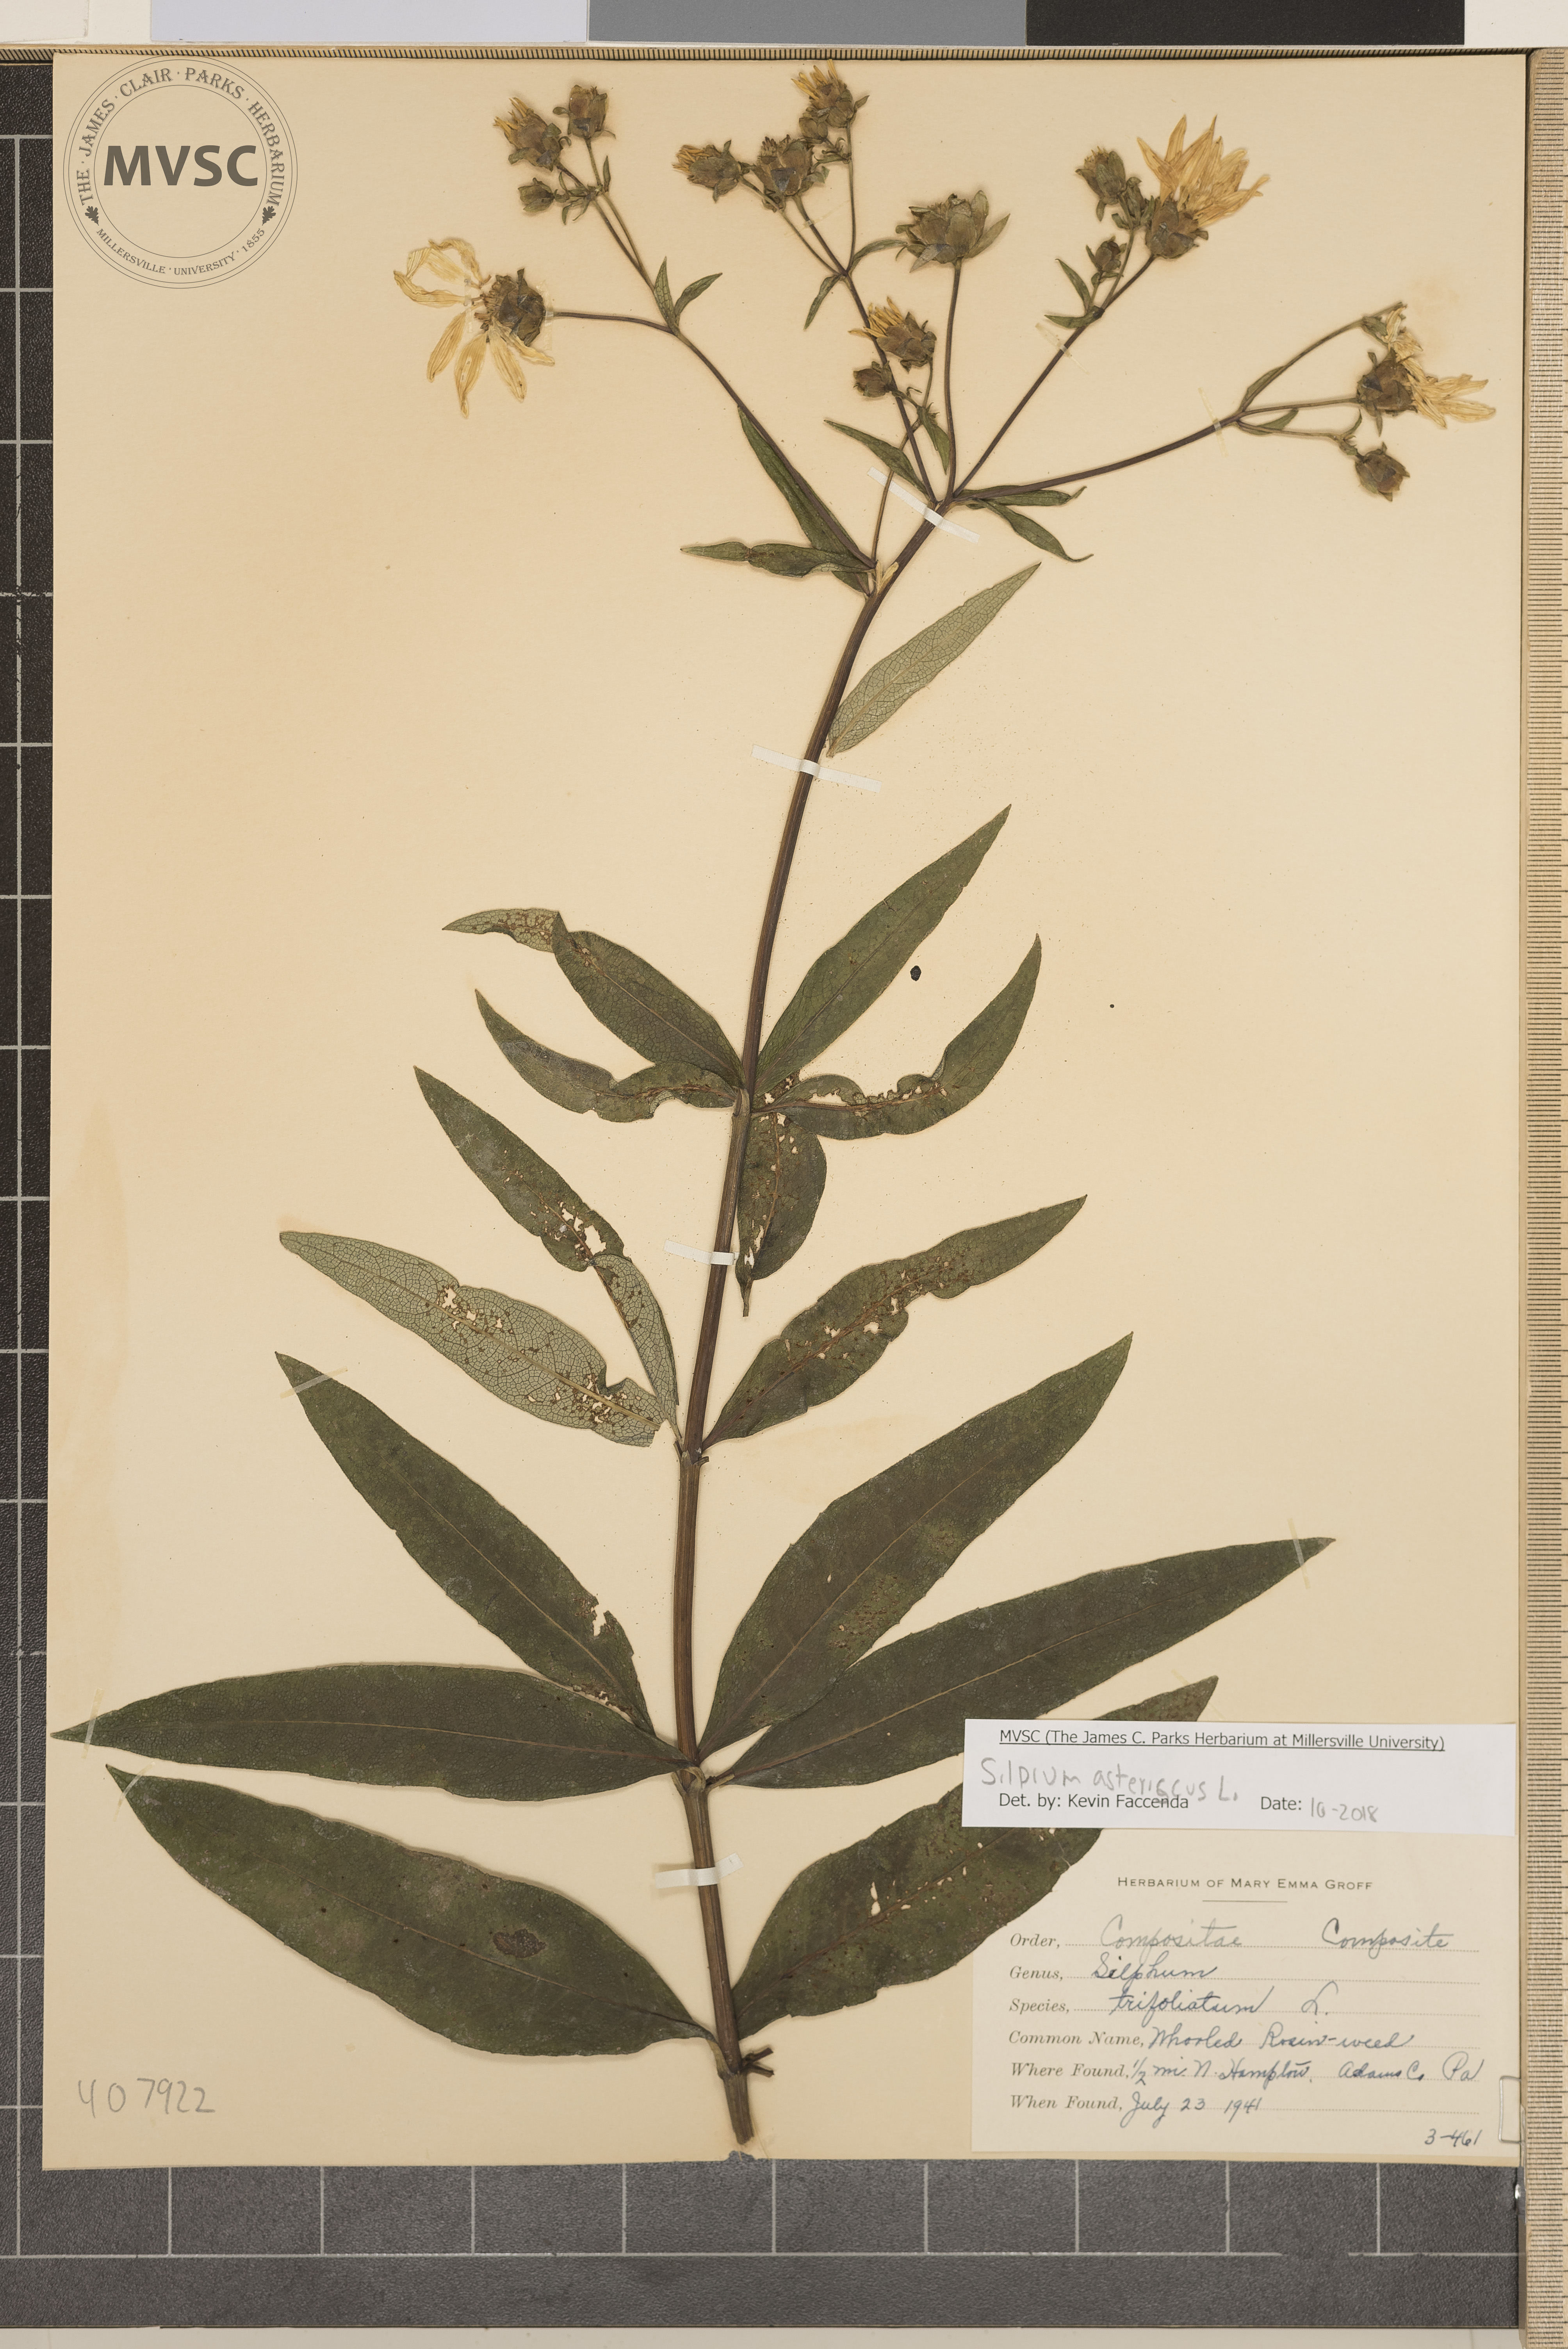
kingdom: Plantae
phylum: Tracheophyta
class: Magnoliopsida
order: Asterales
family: Asteraceae
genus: Silphium
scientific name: Silphium asteriscus
